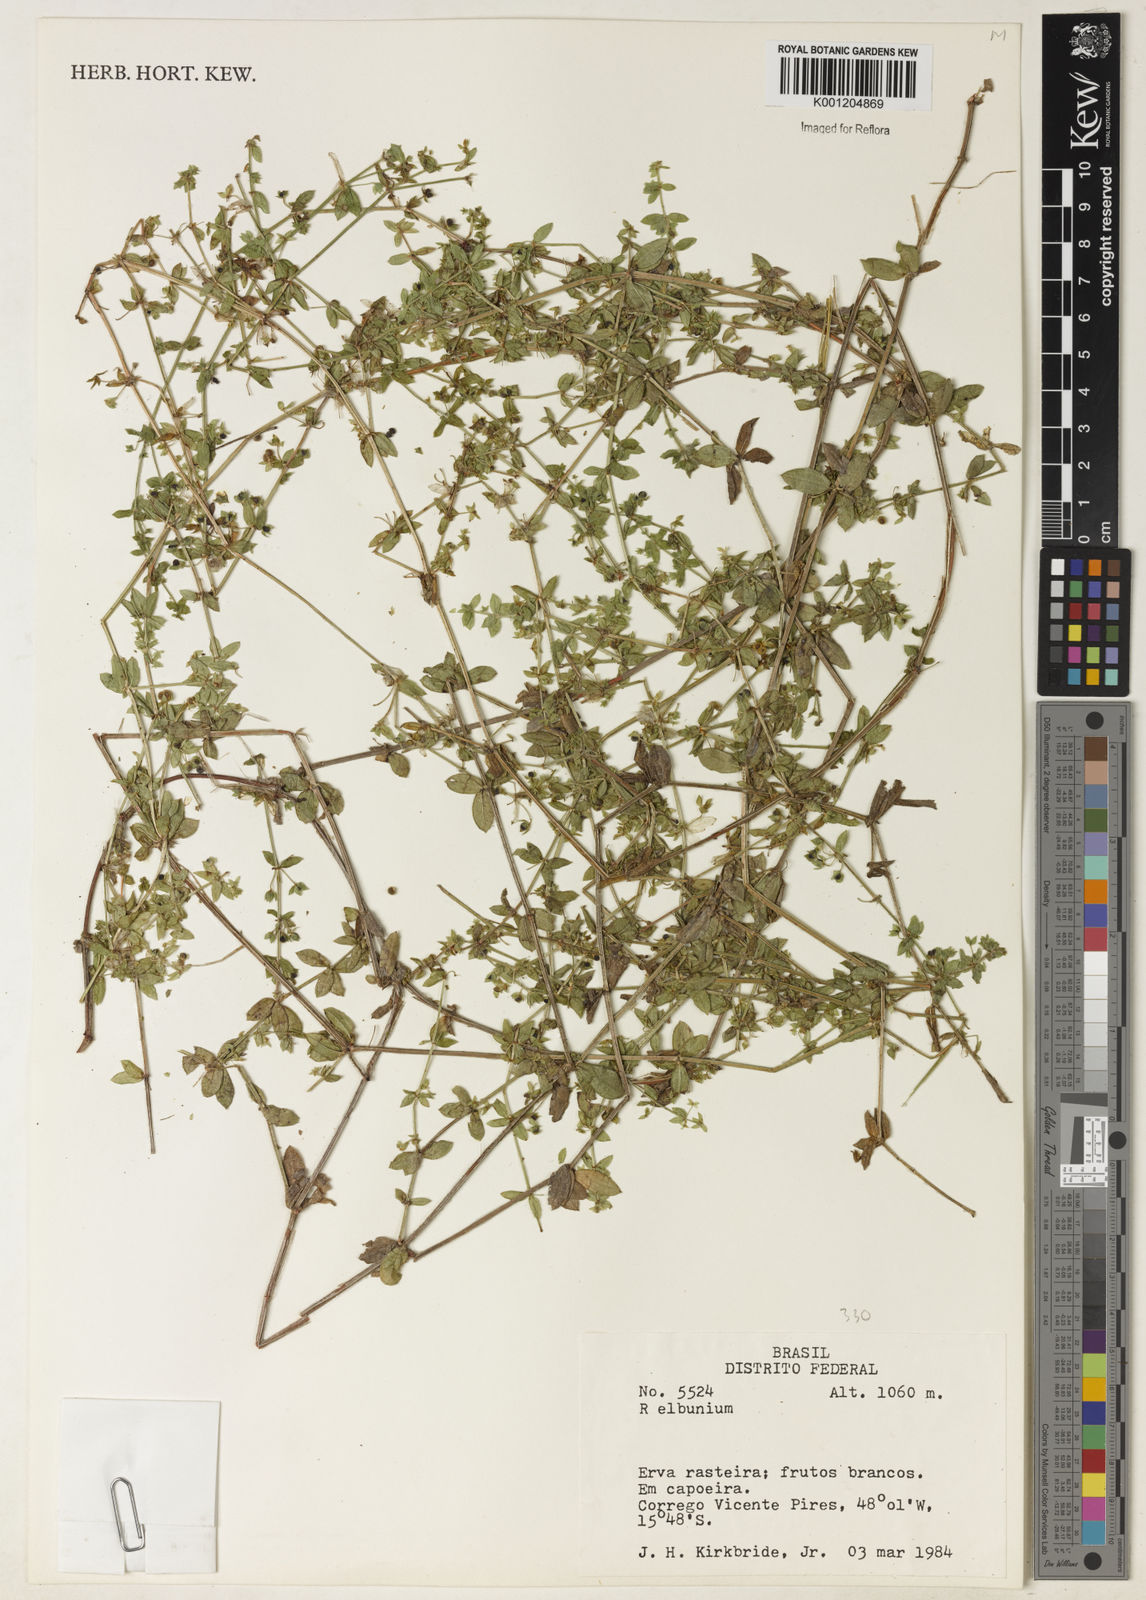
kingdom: Plantae
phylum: Tracheophyta
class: Magnoliopsida
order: Gentianales
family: Rubiaceae
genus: Galium
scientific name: Galium
